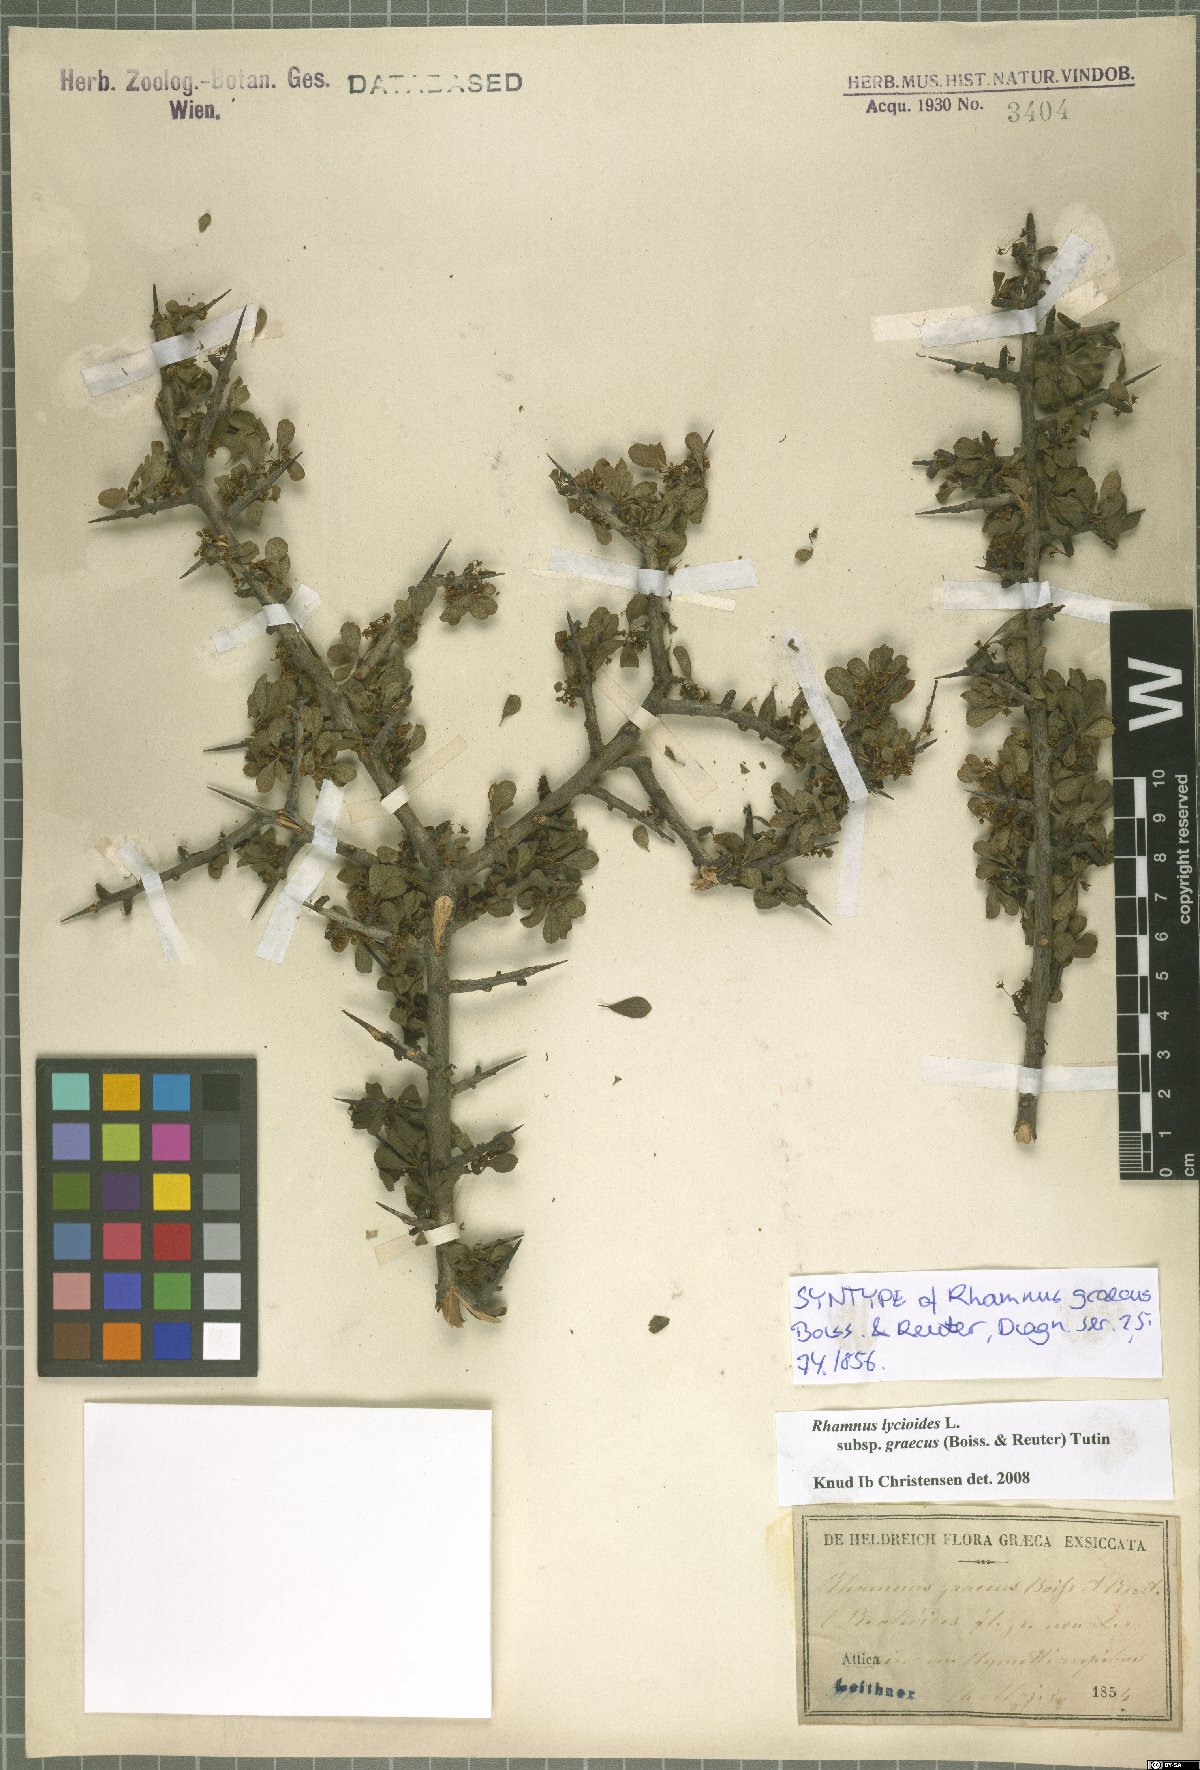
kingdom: Plantae
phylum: Tracheophyta
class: Magnoliopsida
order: Rosales
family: Rhamnaceae
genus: Rhamnus
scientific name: Rhamnus lycioides
